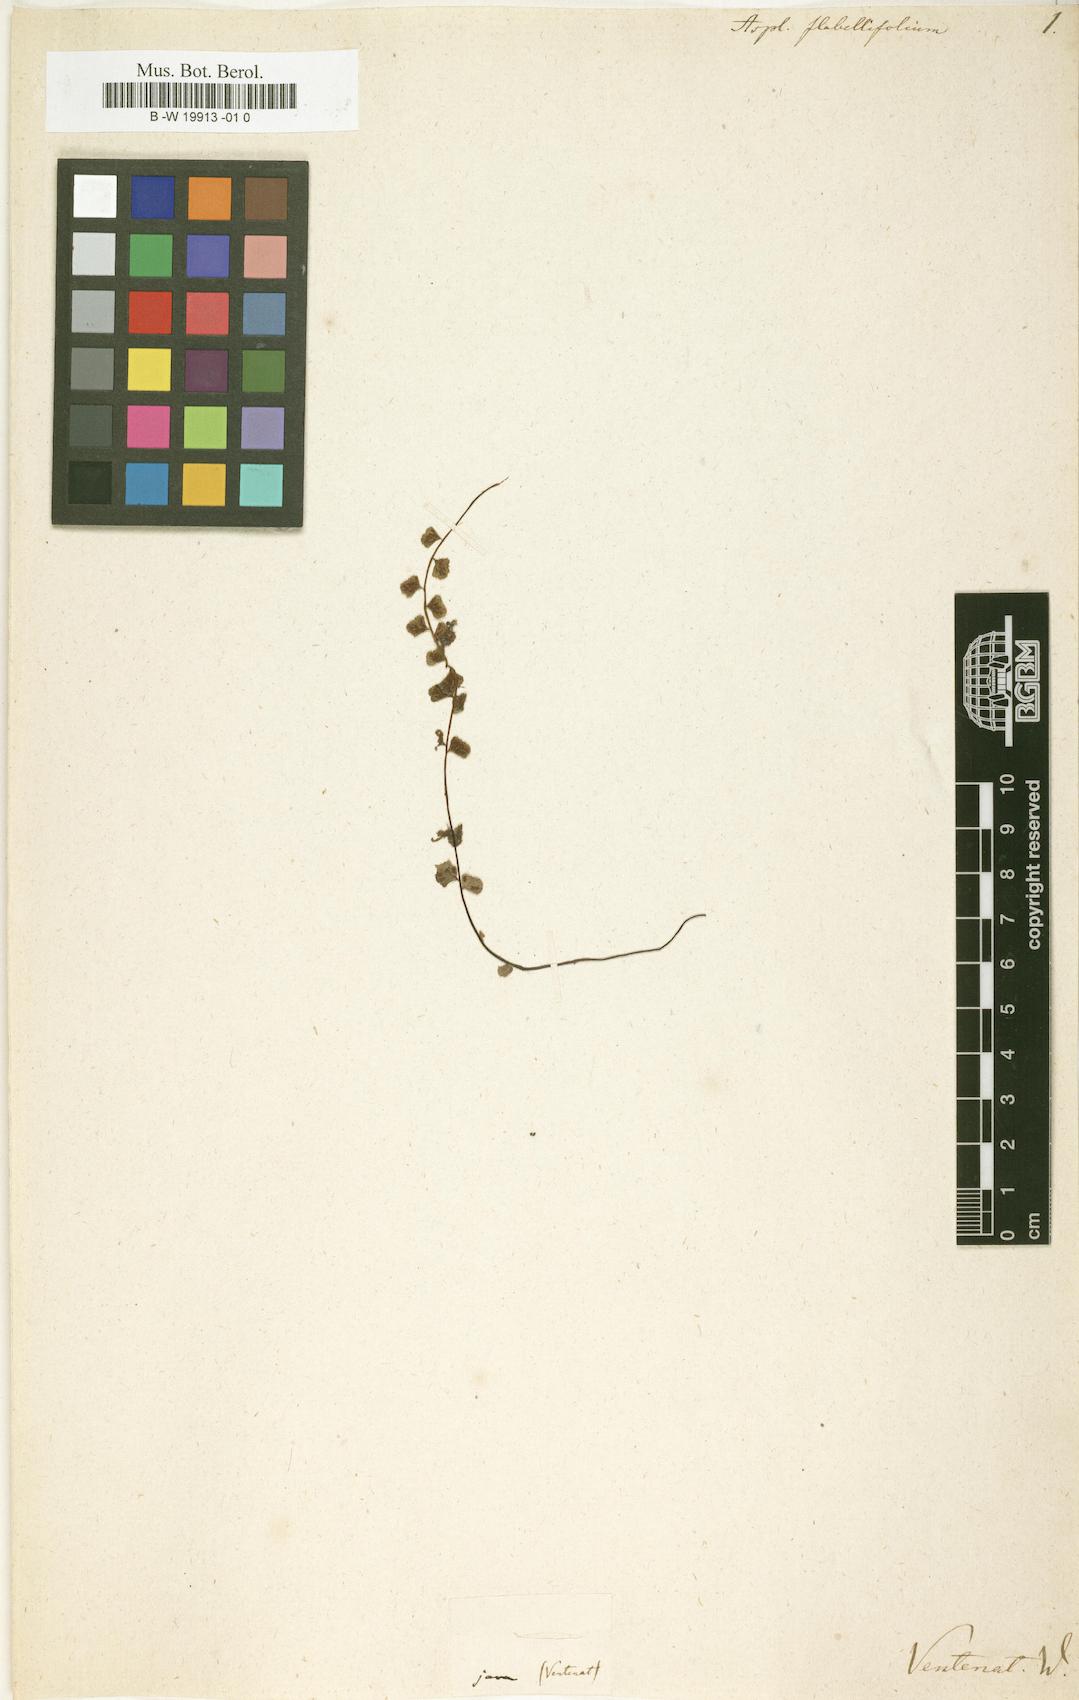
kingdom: Plantae
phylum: Tracheophyta
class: Polypodiopsida
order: Polypodiales
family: Aspleniaceae
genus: Asplenium
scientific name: Asplenium flabellifolium
